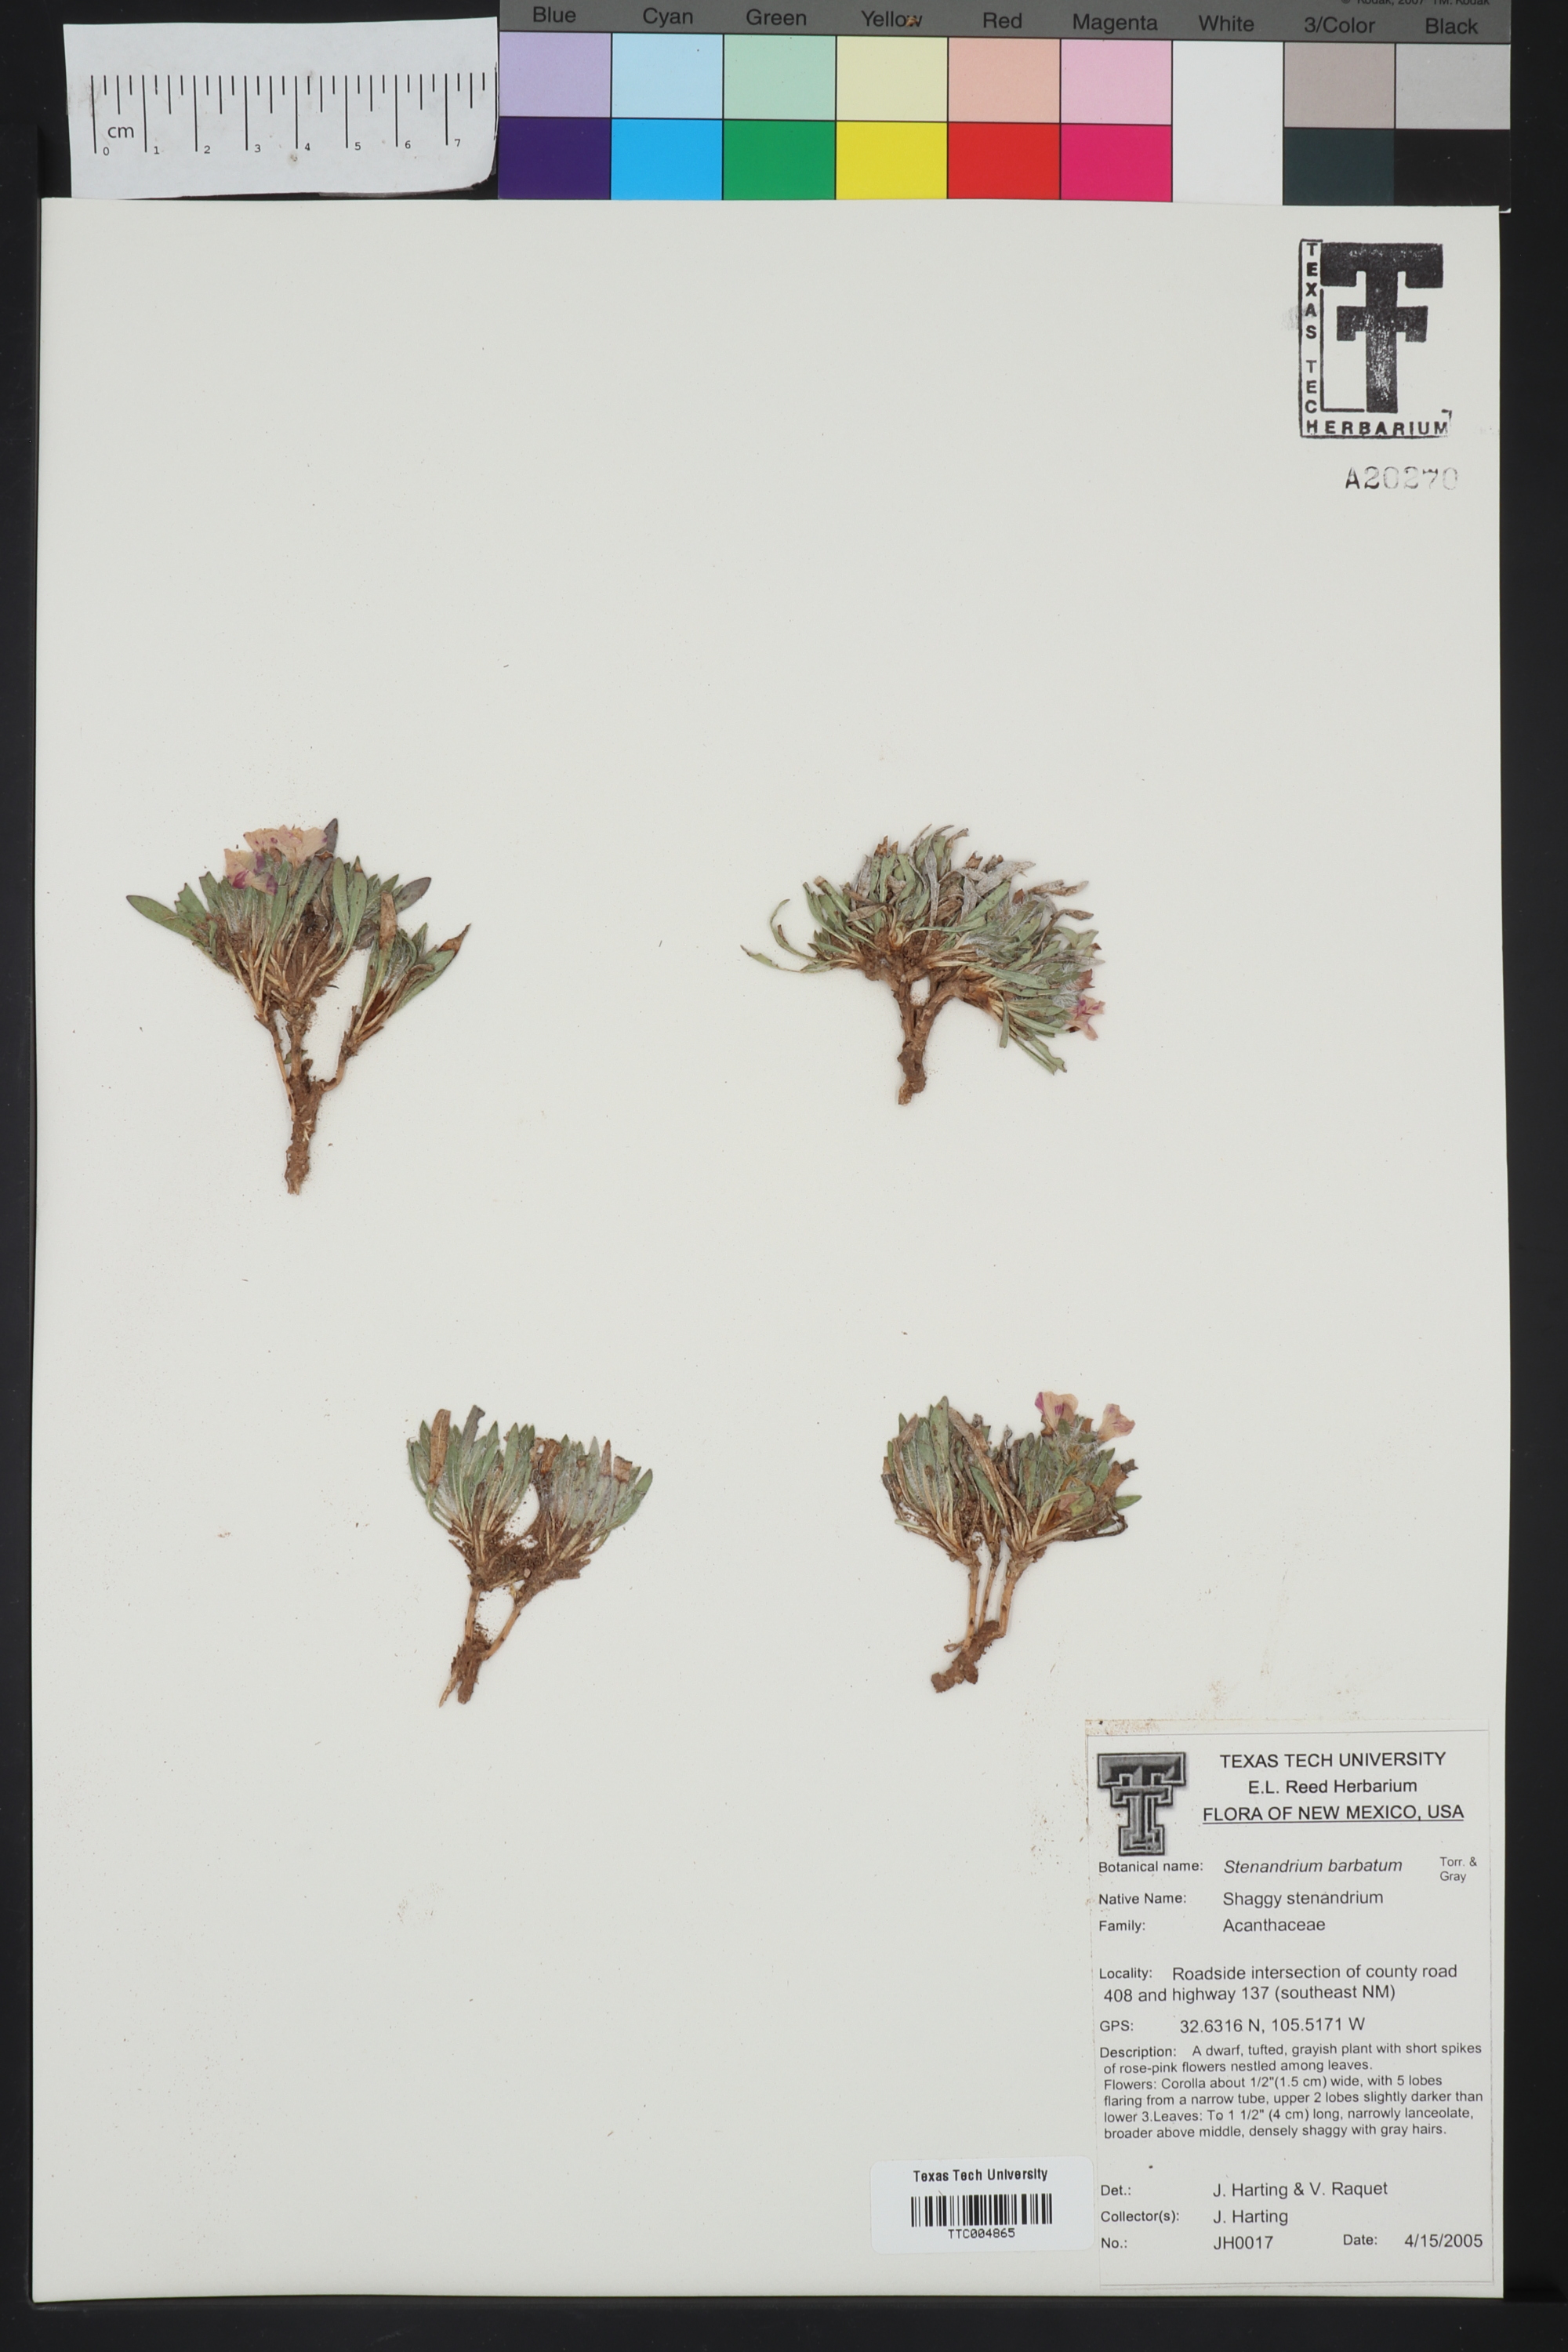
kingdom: Plantae
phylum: Tracheophyta
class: Magnoliopsida
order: Lamiales
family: Acanthaceae
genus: Stenandrium
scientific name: Stenandrium barbatum
